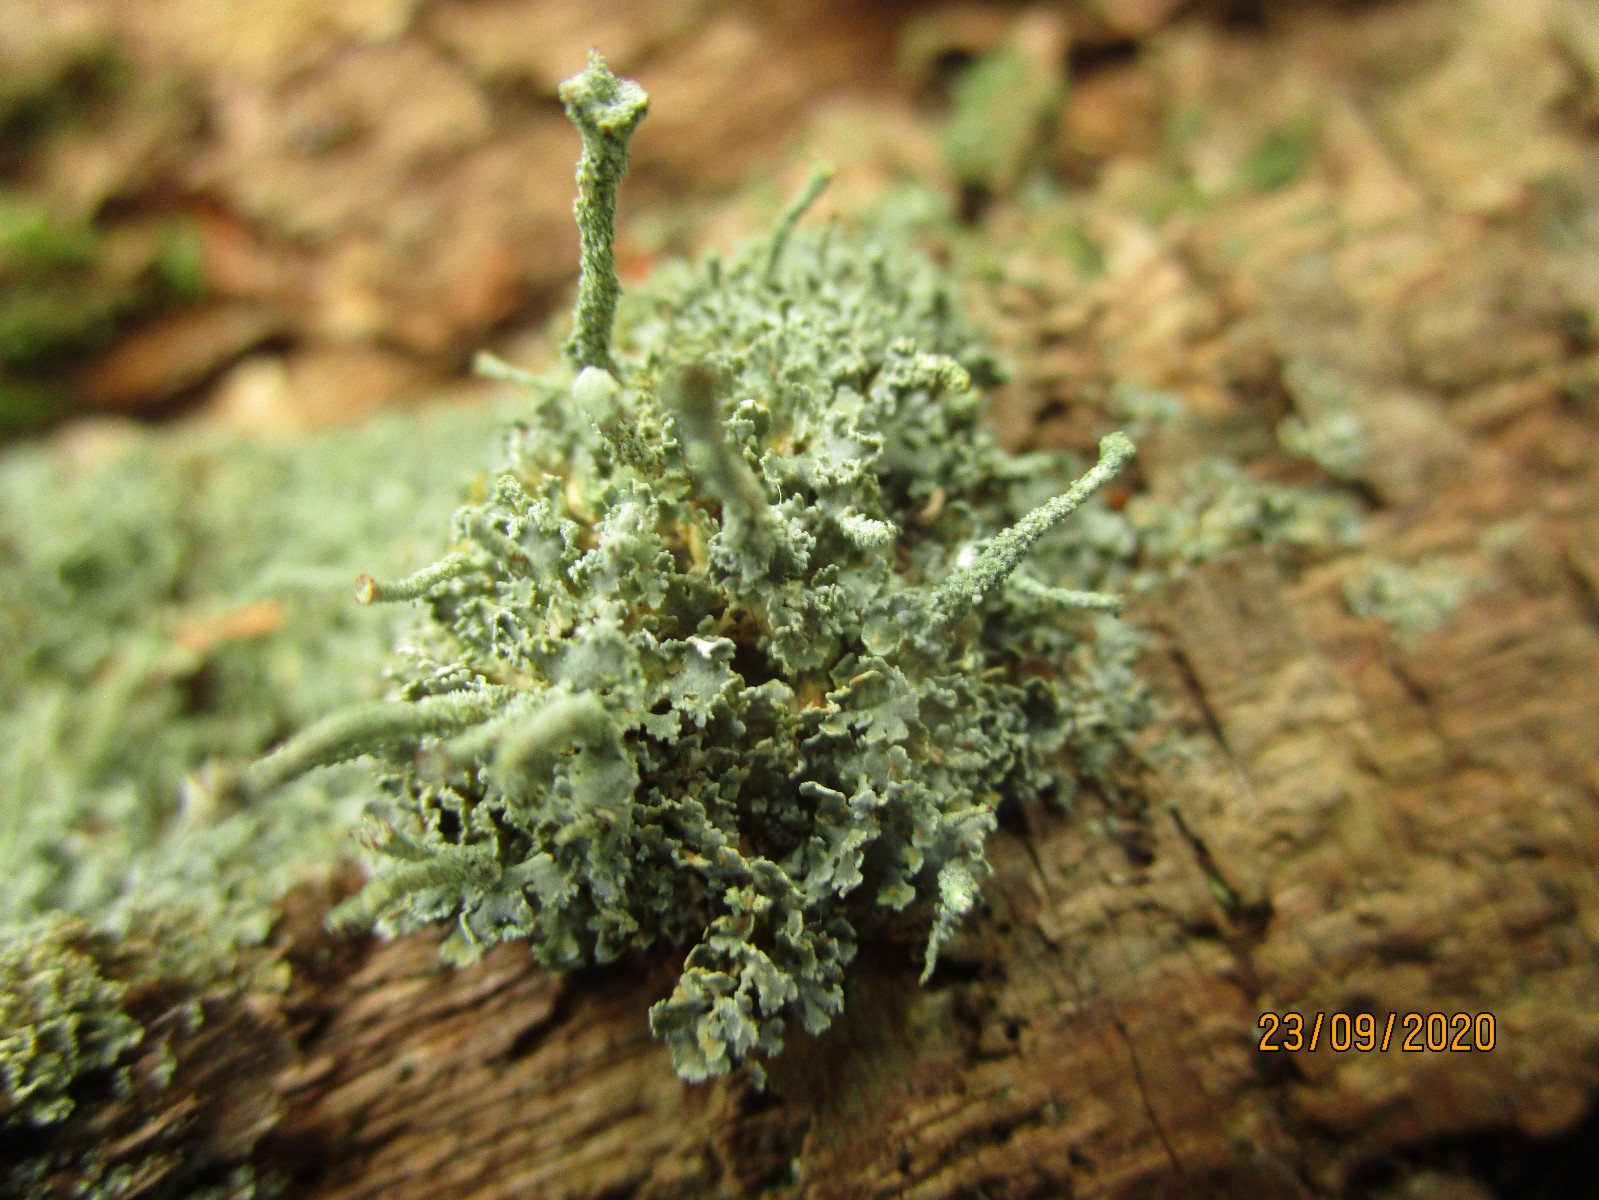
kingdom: Fungi
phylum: Ascomycota
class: Lecanoromycetes
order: Lecanorales
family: Cladoniaceae
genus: Cladonia
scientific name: Cladonia digitata
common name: finger-bægerlav
